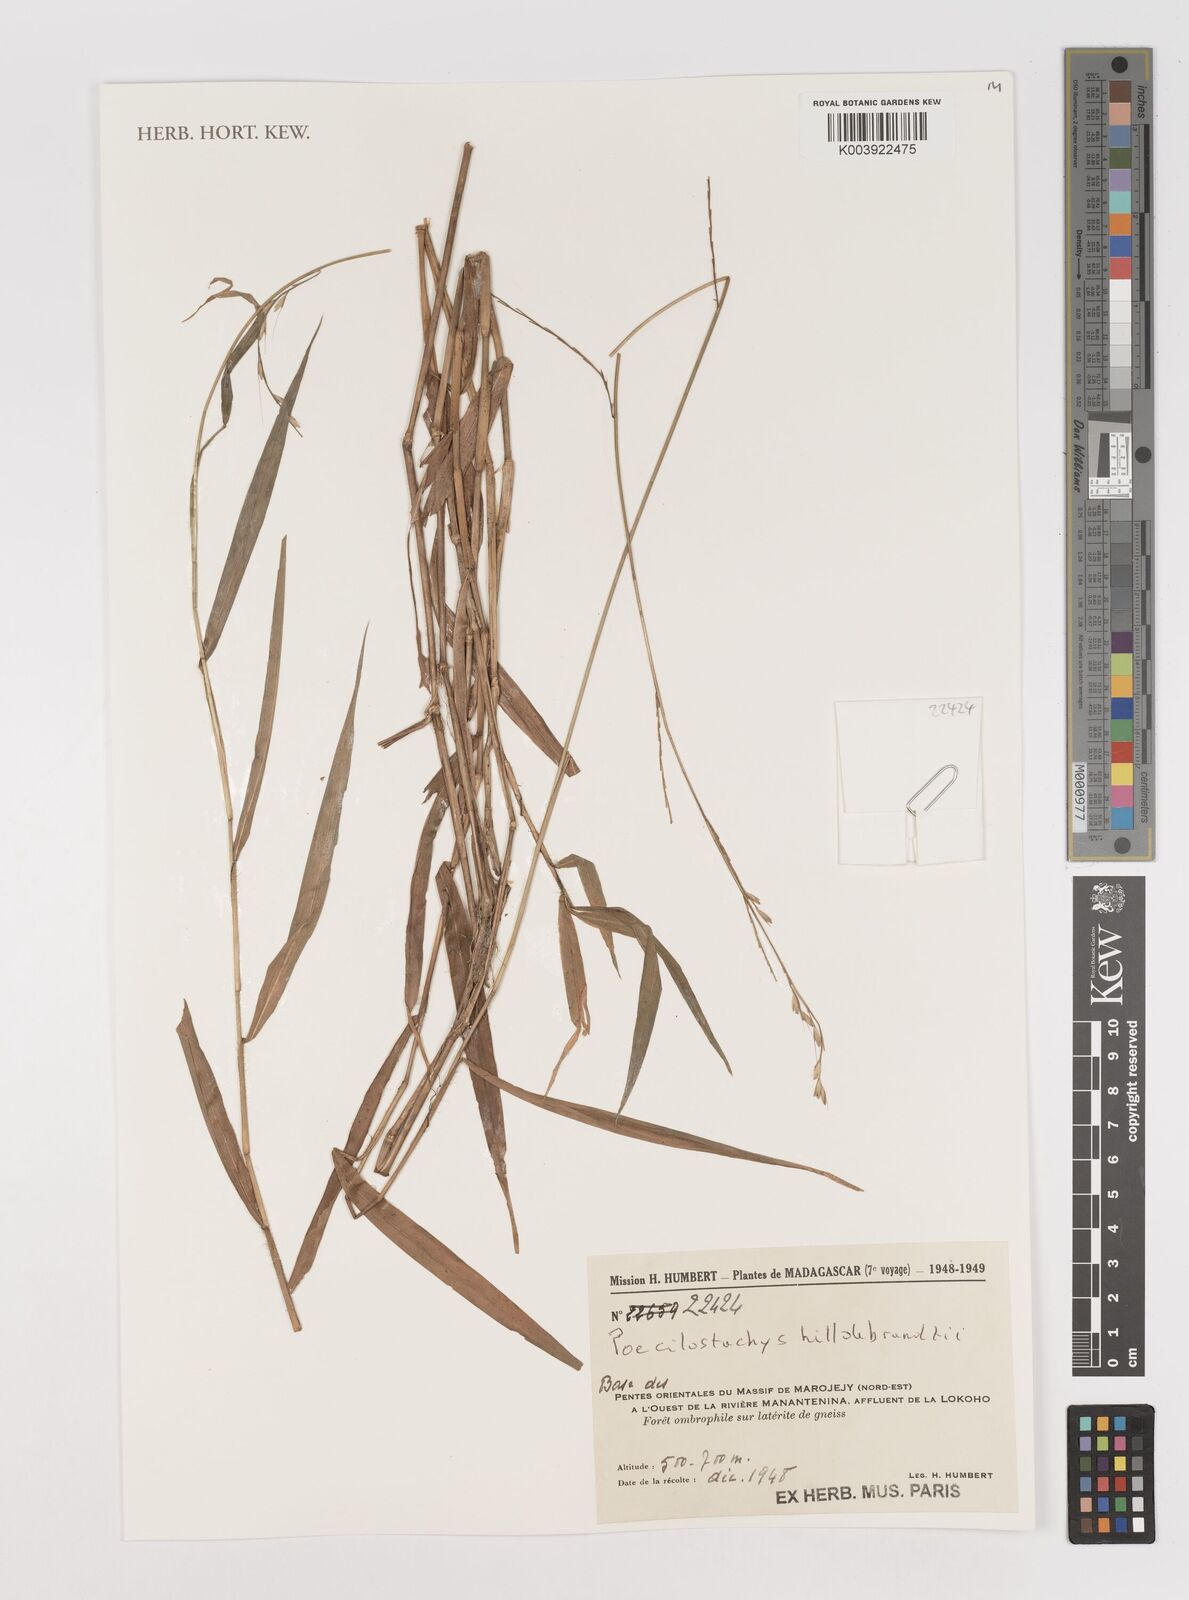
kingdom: Plantae
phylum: Tracheophyta
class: Liliopsida
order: Poales
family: Poaceae
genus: Poecilostachys
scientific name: Poecilostachys hildebrandtii
